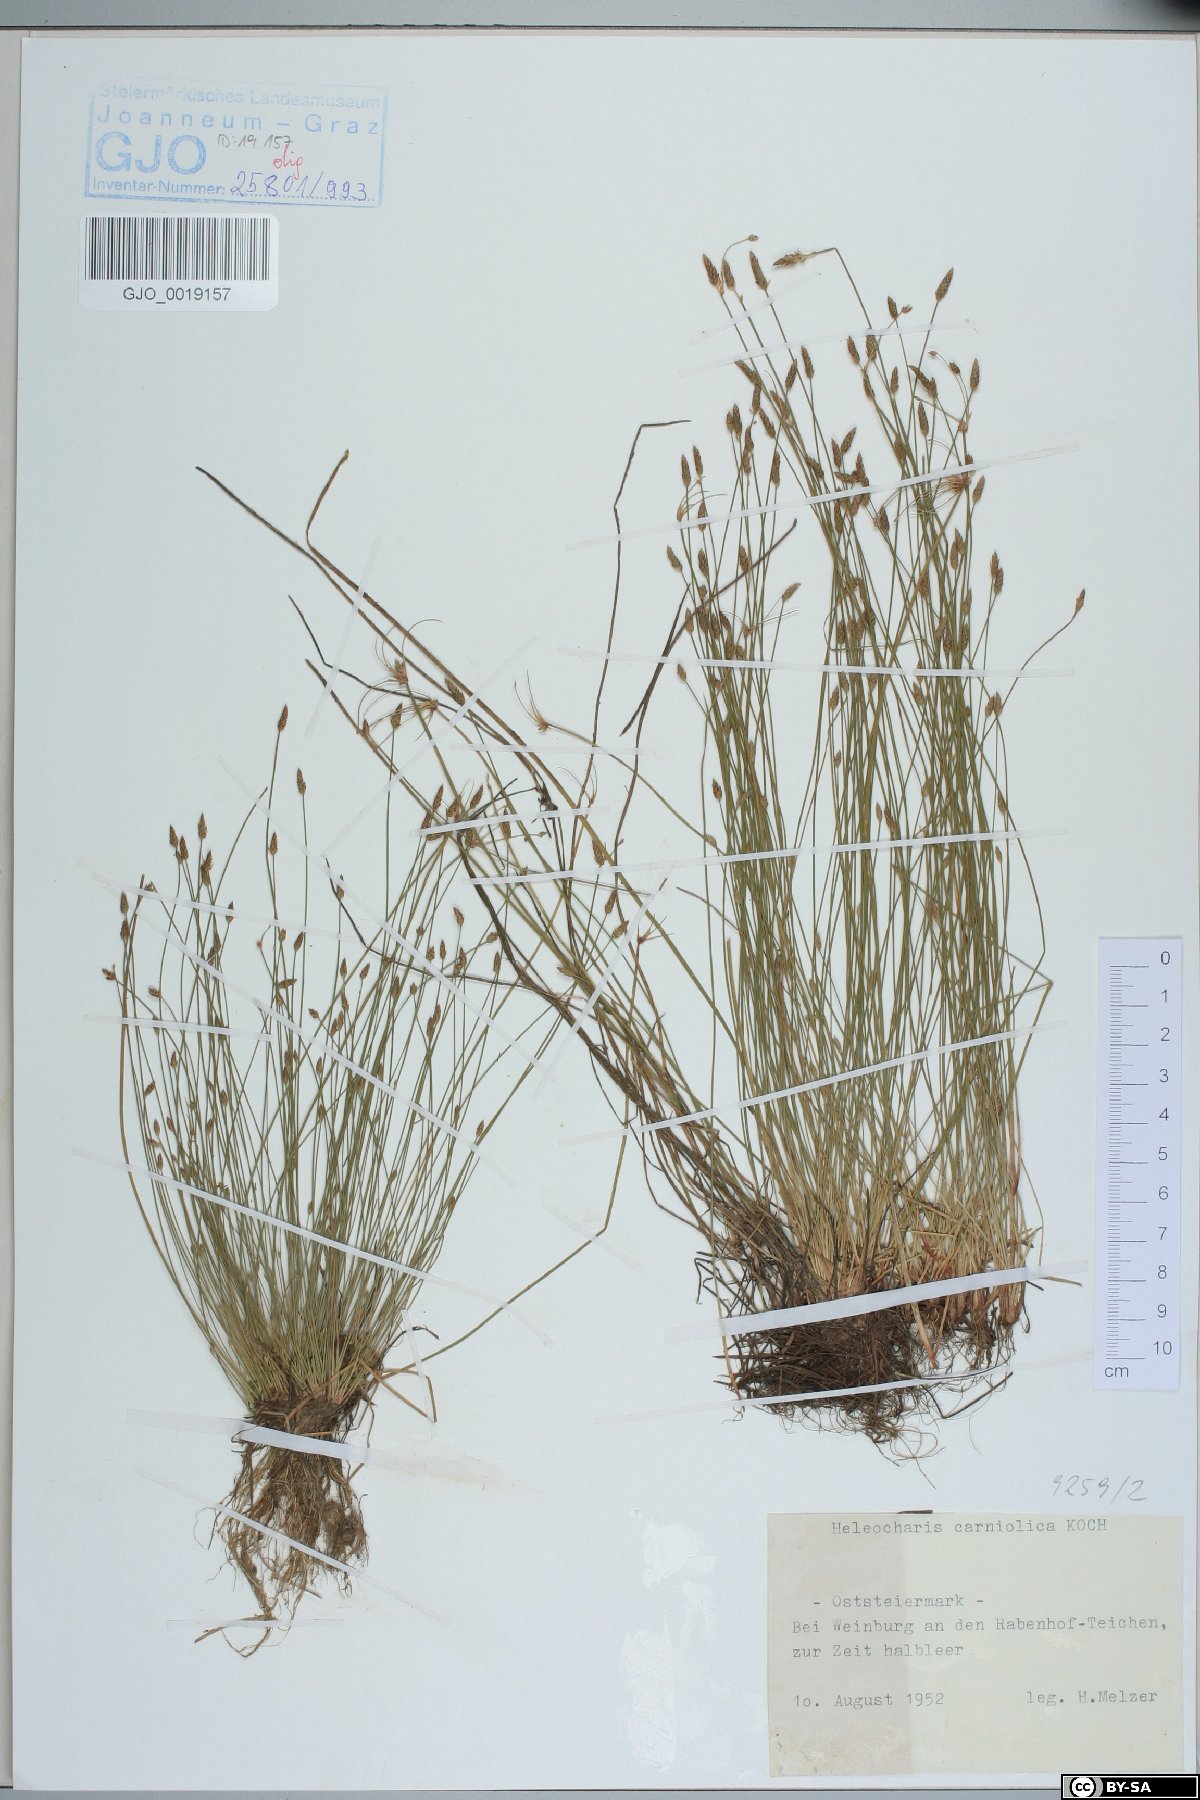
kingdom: Plantae
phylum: Tracheophyta
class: Liliopsida
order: Poales
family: Cyperaceae
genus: Eleocharis
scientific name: Eleocharis carniolica
